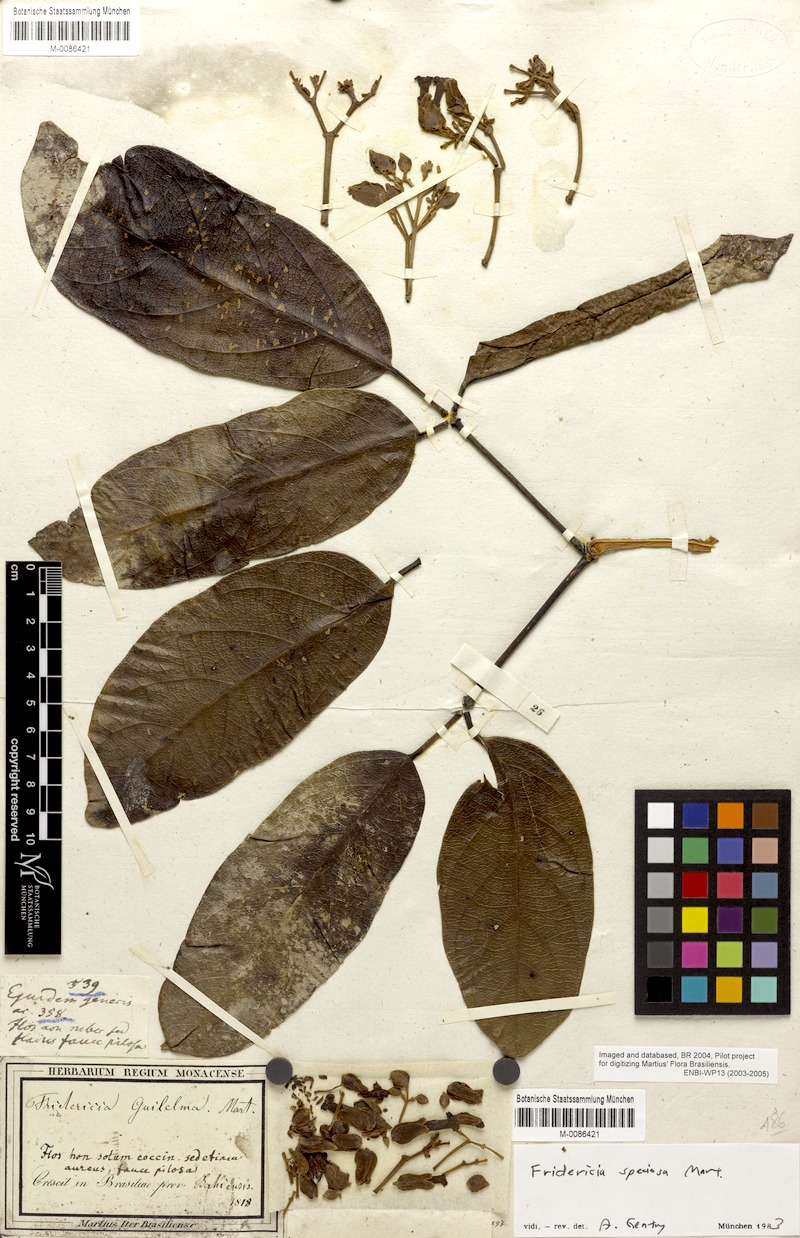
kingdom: Plantae
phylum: Tracheophyta
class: Magnoliopsida
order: Lamiales
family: Bignoniaceae
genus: Fridericia
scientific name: Fridericia speciosa
